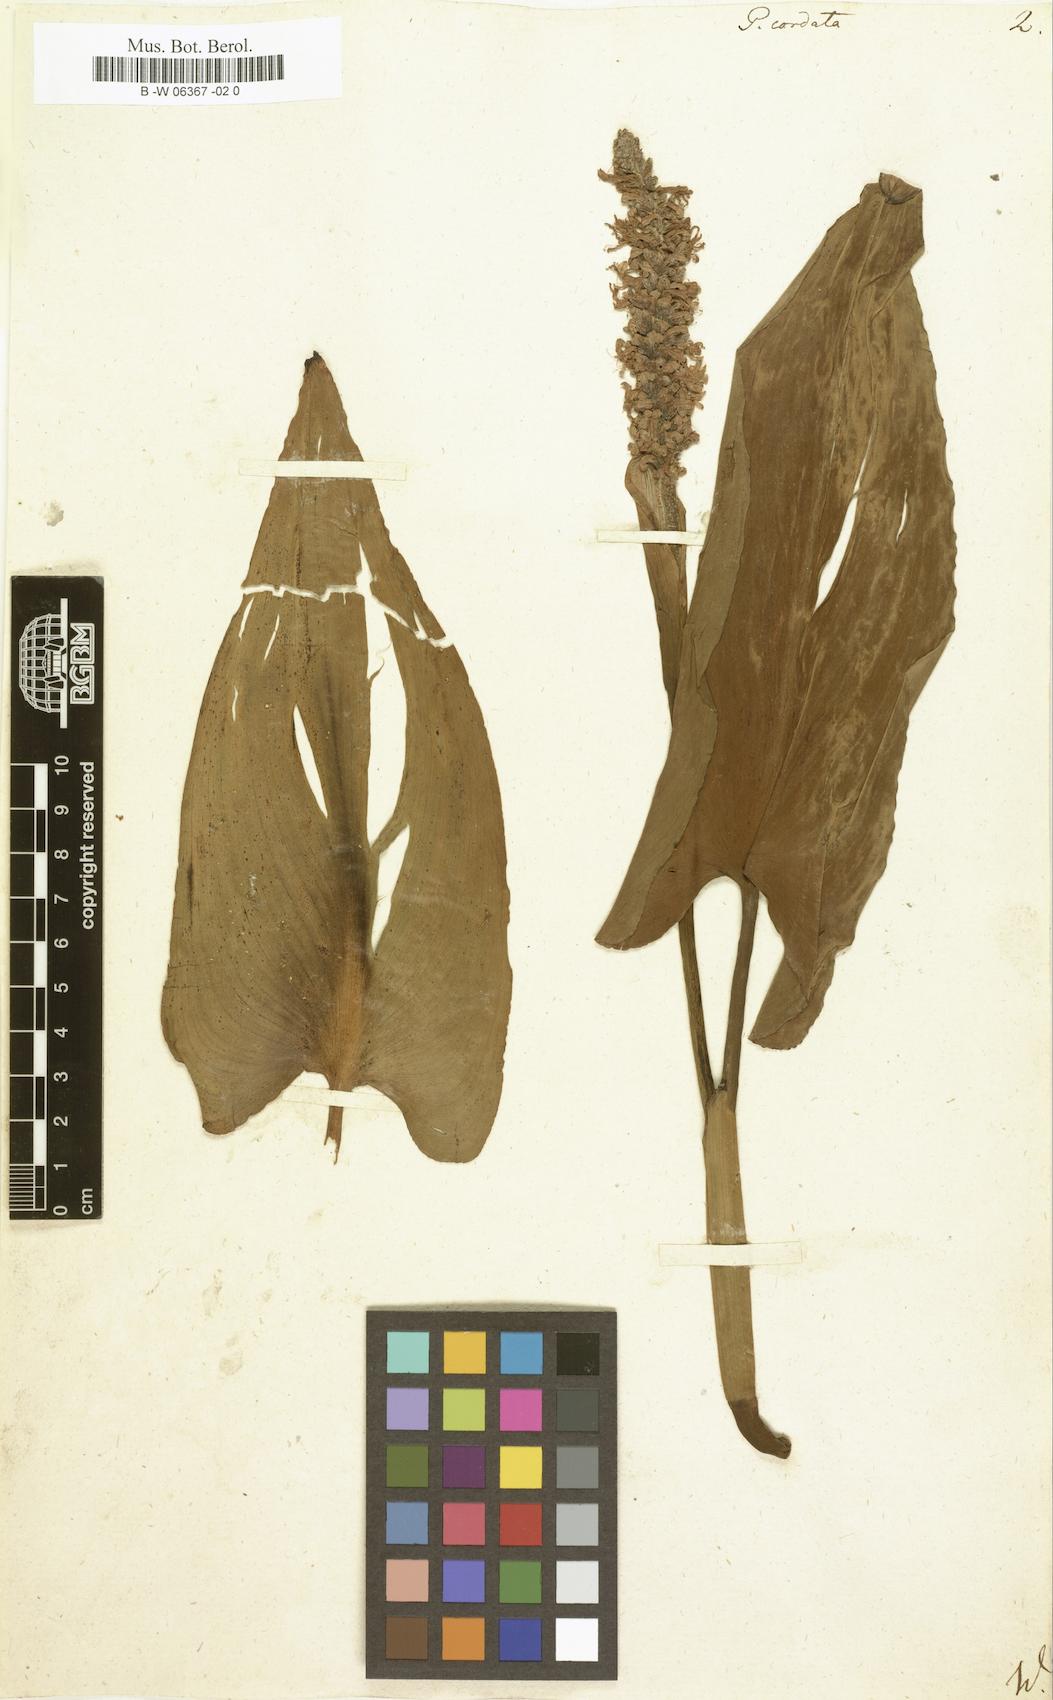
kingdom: Plantae
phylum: Tracheophyta
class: Liliopsida
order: Commelinales
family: Pontederiaceae
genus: Pontederia
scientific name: Pontederia cordata
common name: Pickerelweed
